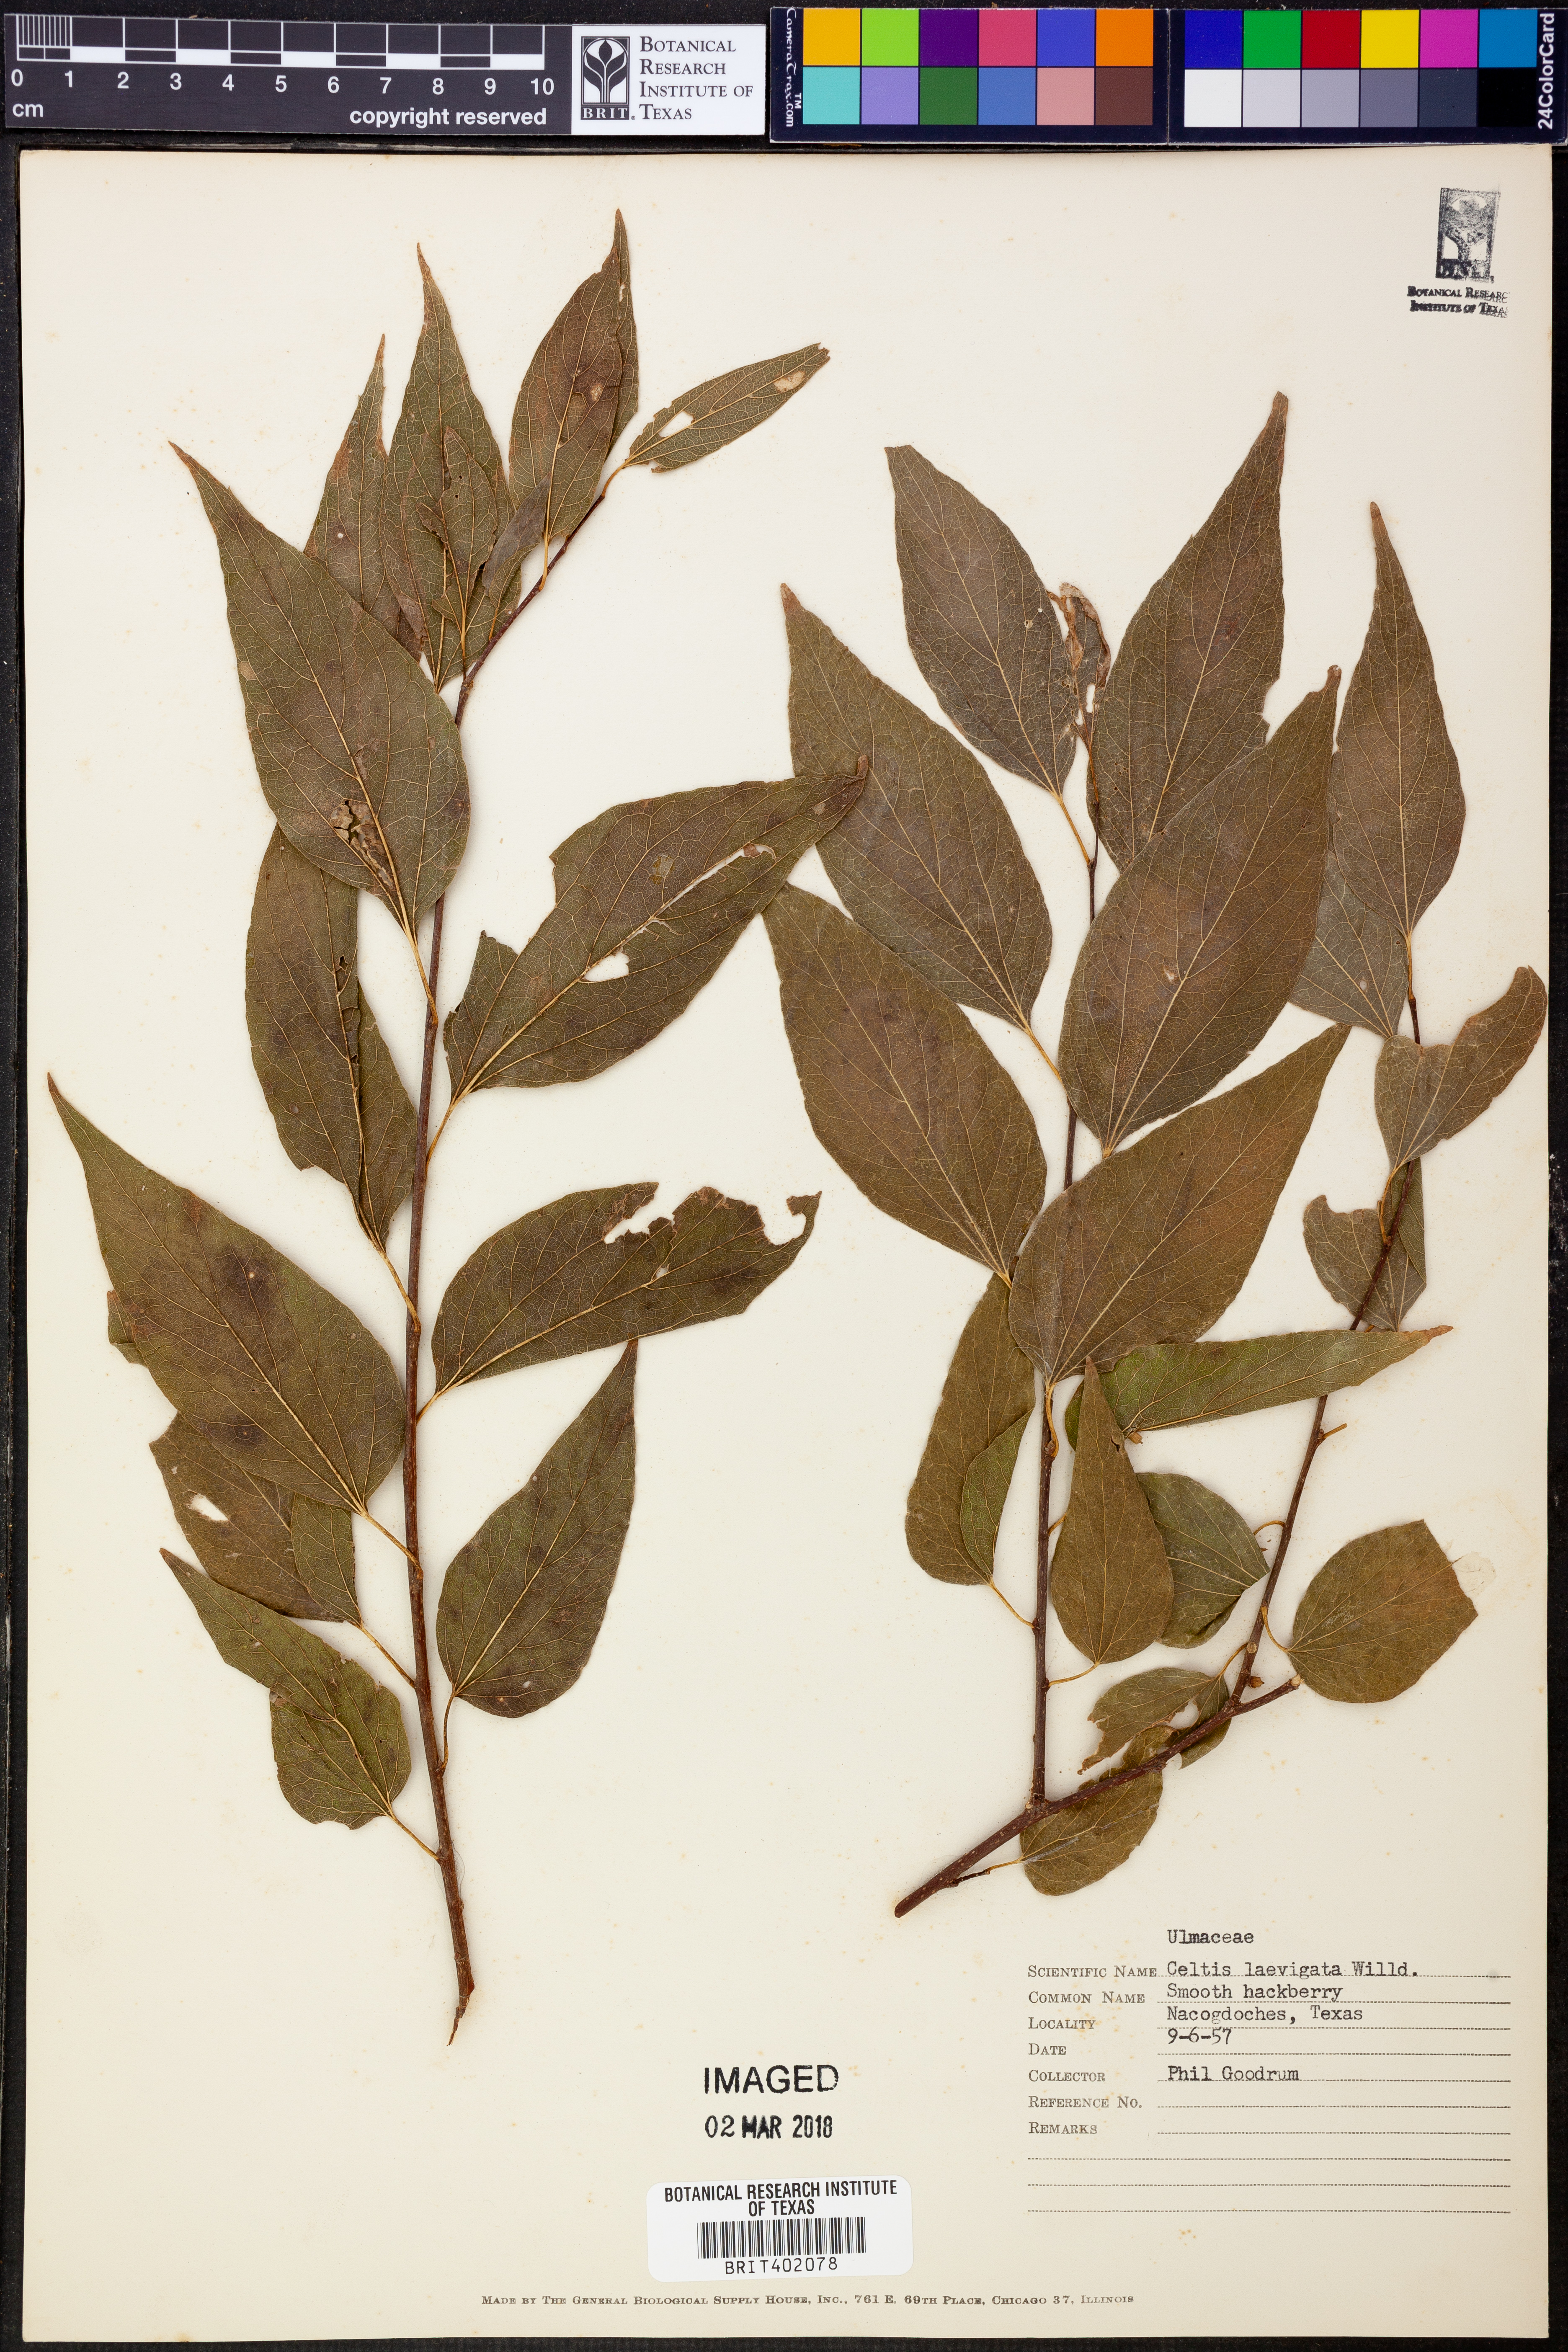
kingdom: Plantae
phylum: Tracheophyta
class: Magnoliopsida
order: Rosales
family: Cannabaceae
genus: Celtis
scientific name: Celtis laevigata
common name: Sugarberry
